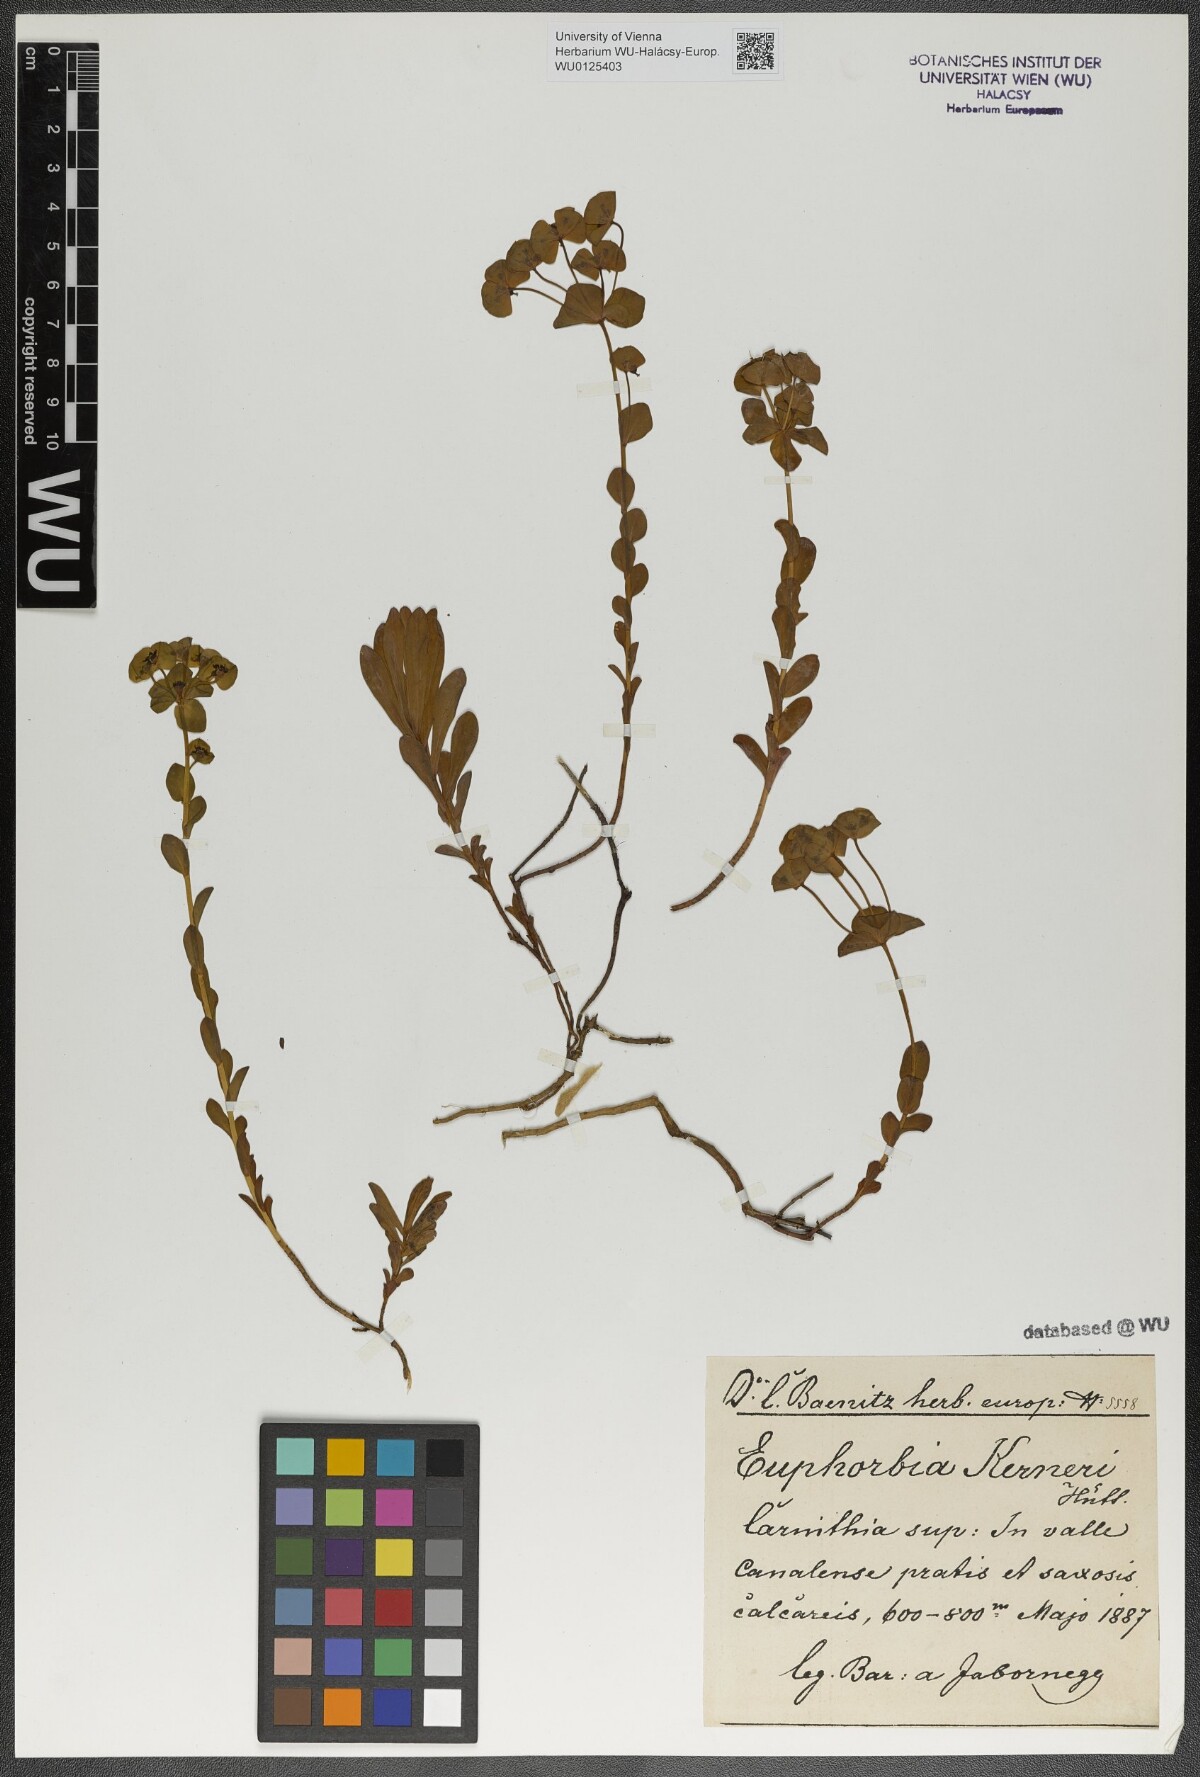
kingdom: Plantae
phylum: Tracheophyta
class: Magnoliopsida
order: Malpighiales
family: Euphorbiaceae
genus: Euphorbia
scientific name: Euphorbia kerneri
